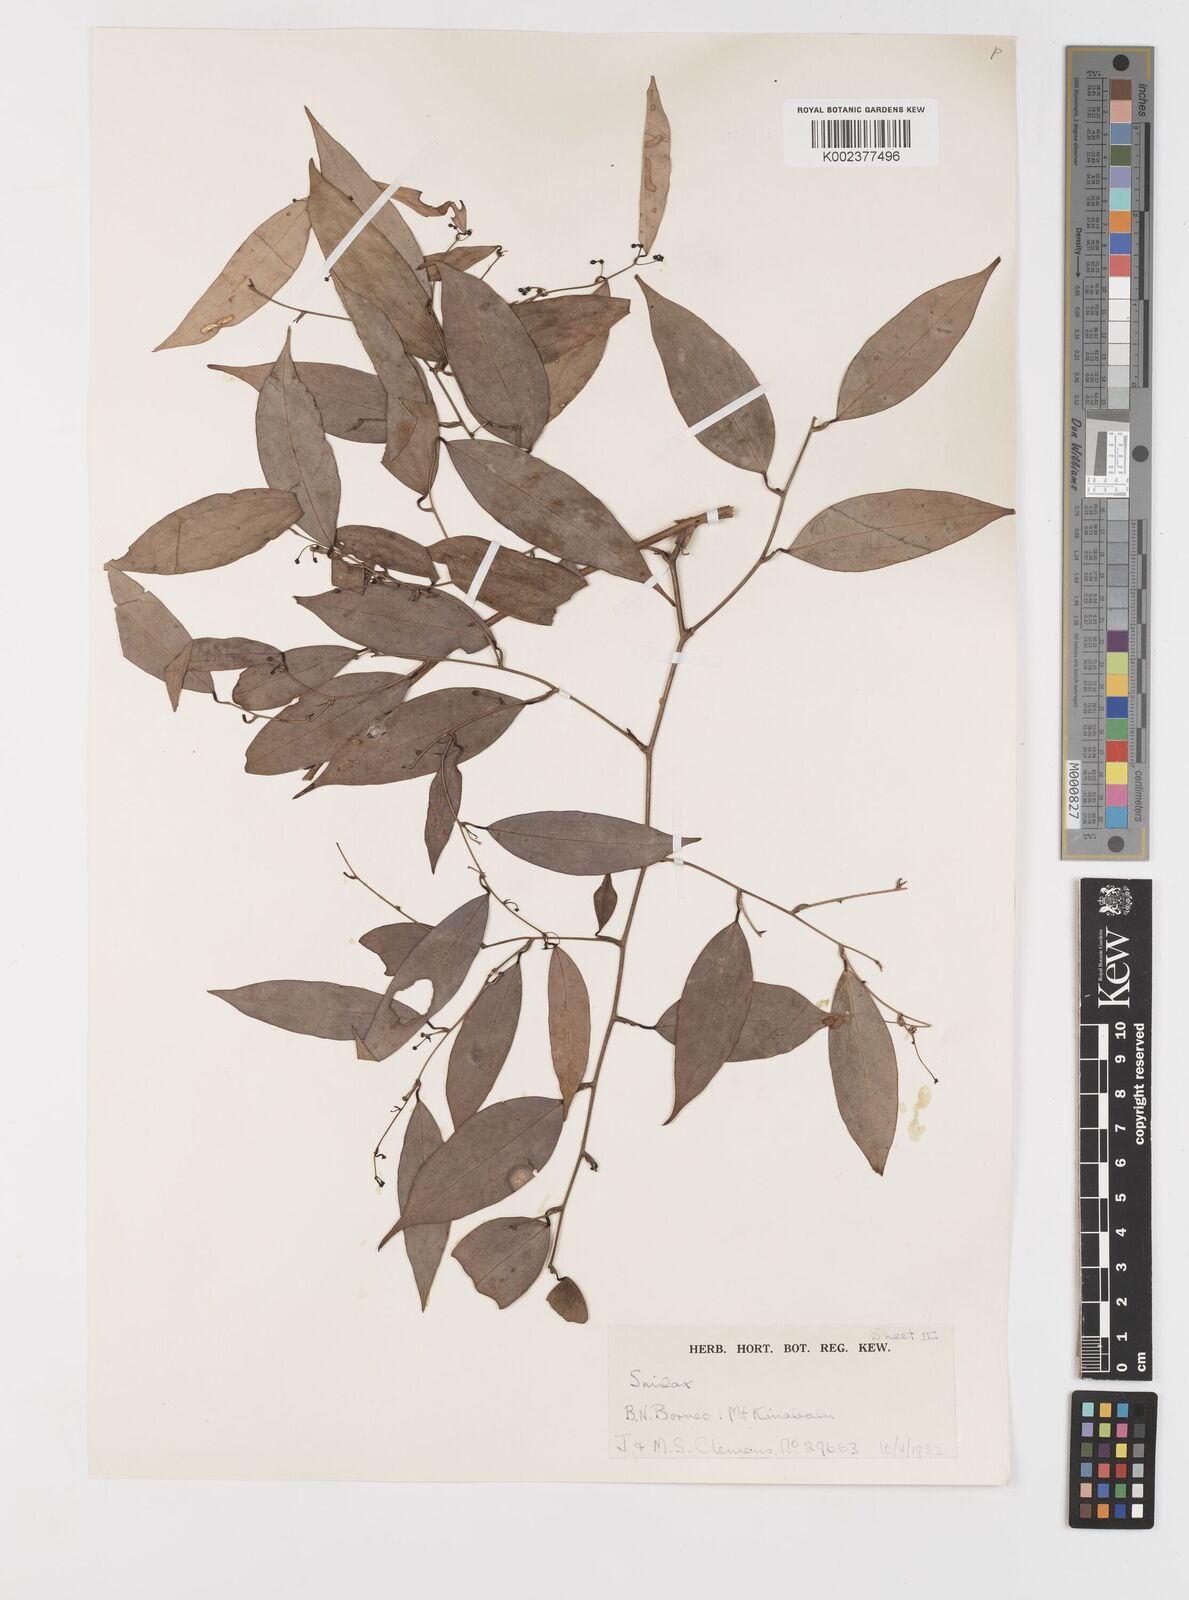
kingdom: Plantae
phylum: Tracheophyta
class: Liliopsida
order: Liliales
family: Smilacaceae
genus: Smilax
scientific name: Smilax corbularia
